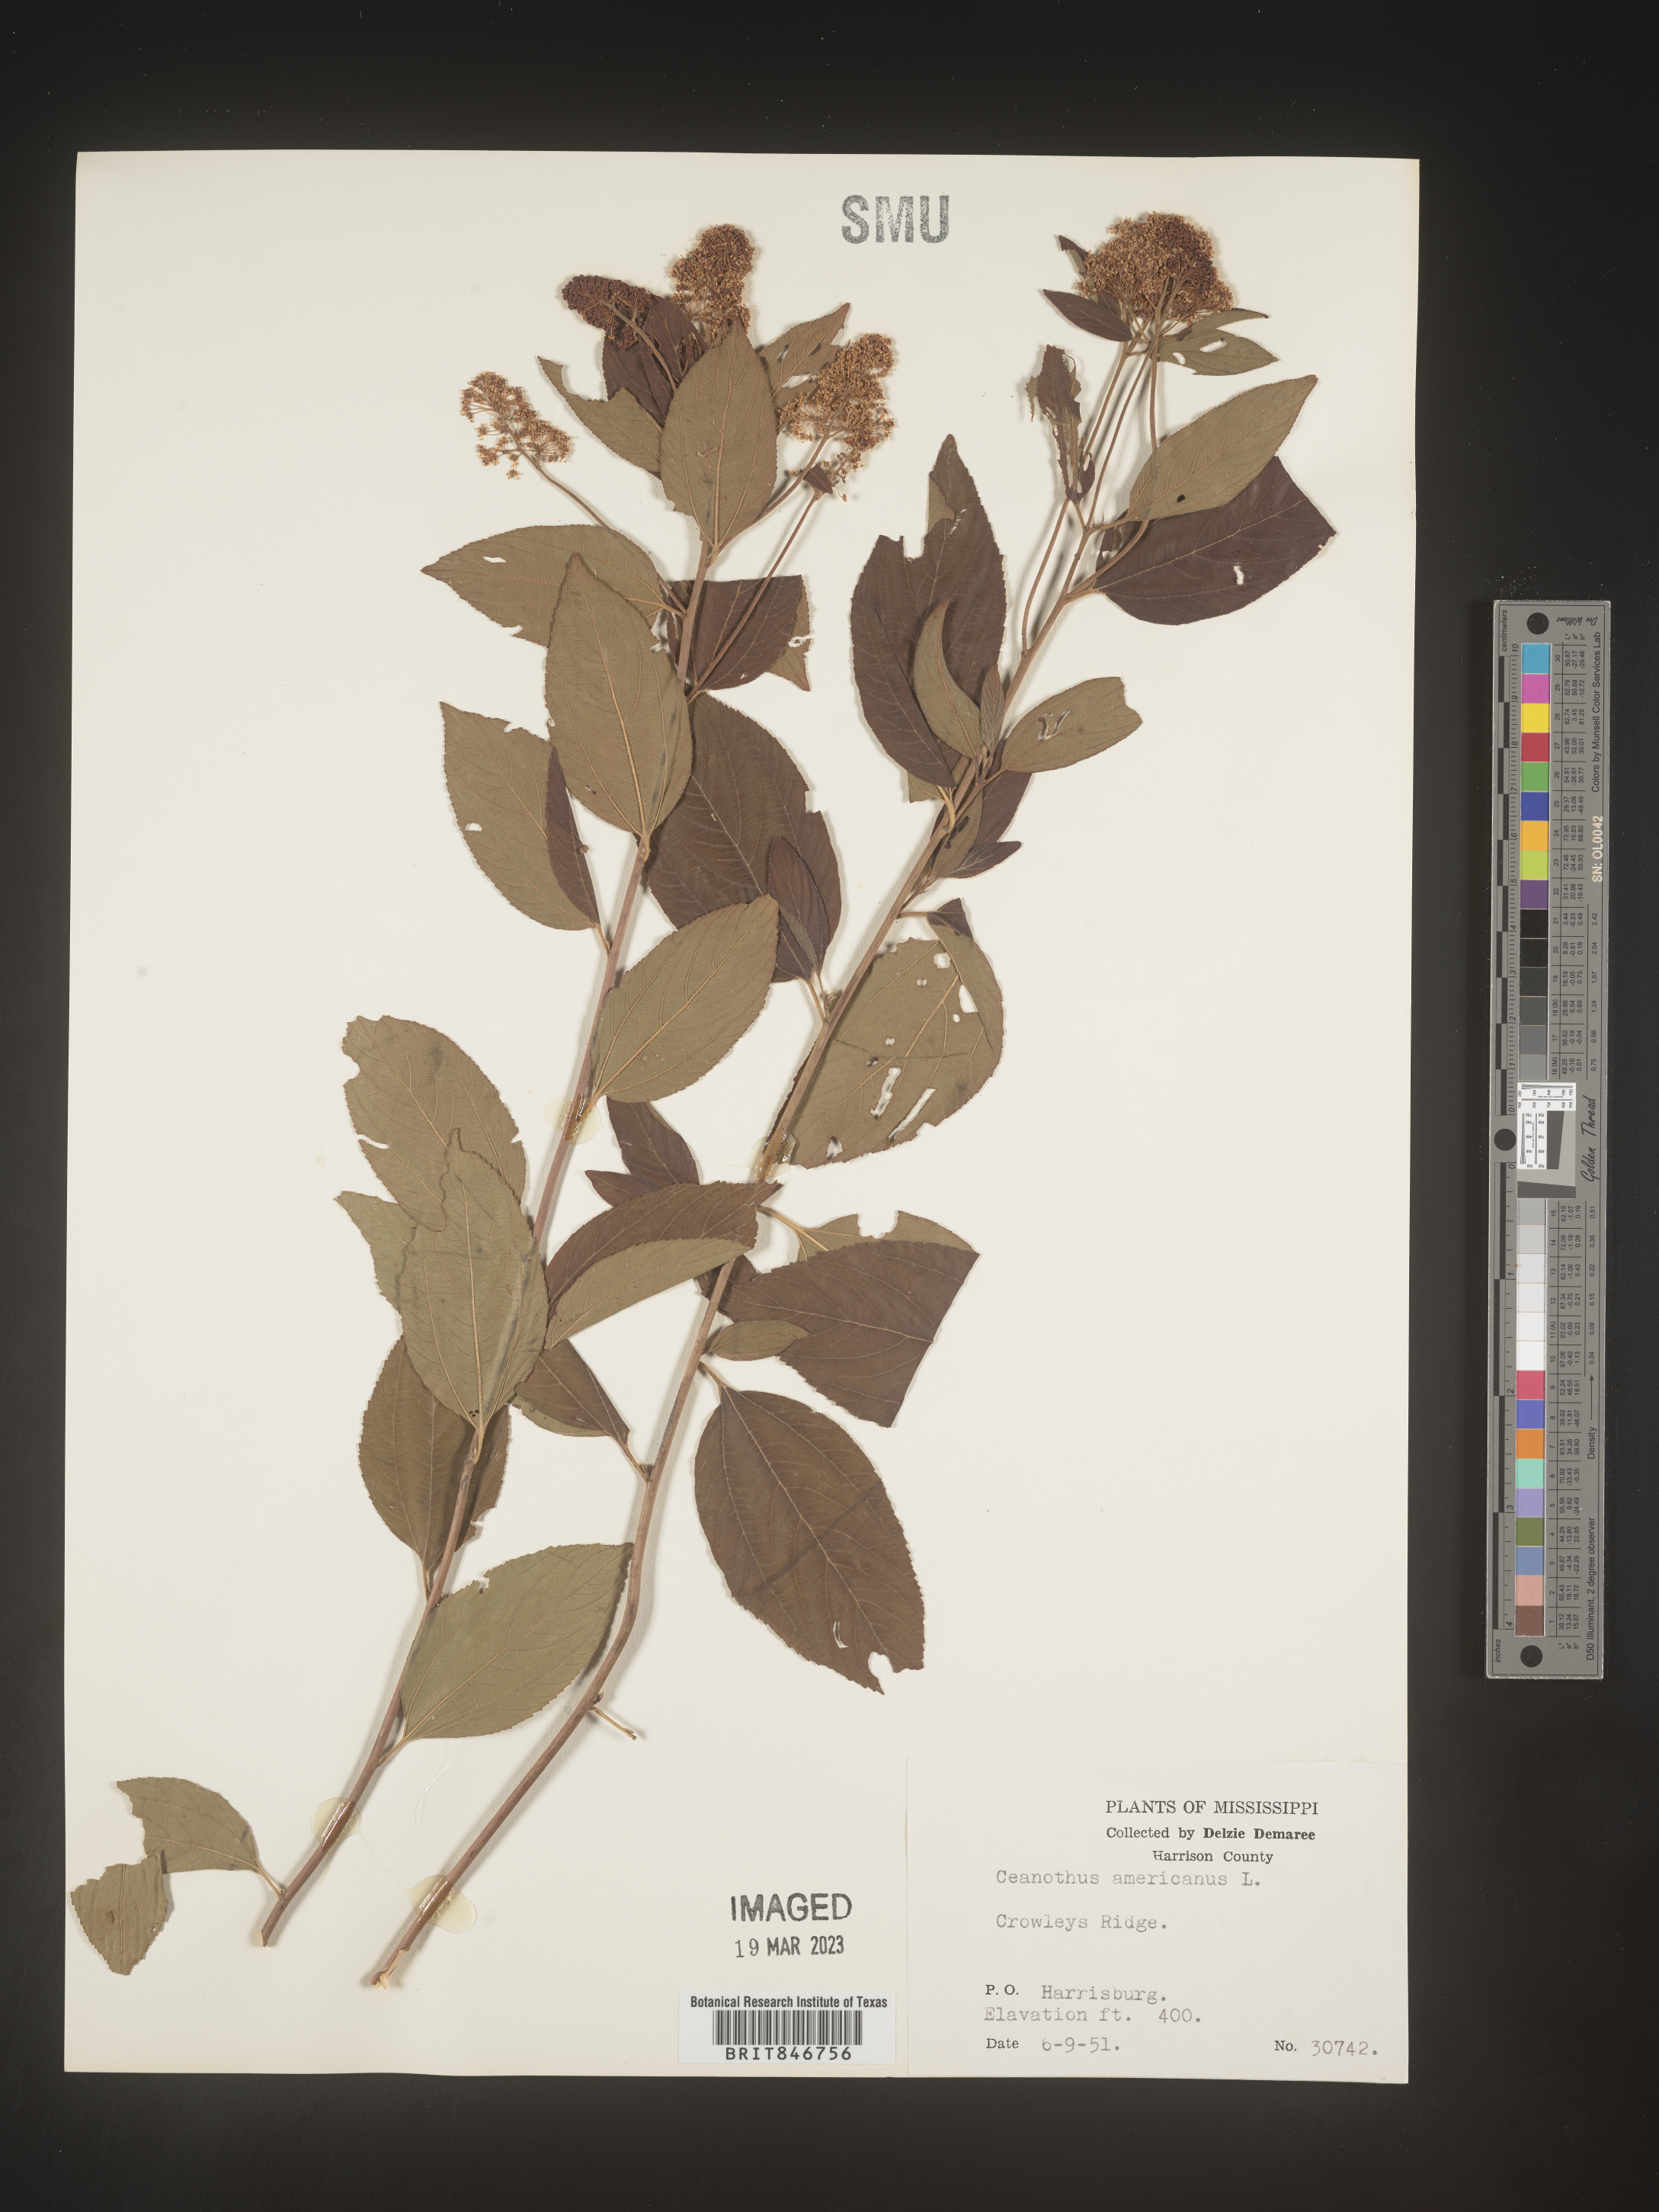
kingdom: Plantae
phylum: Tracheophyta
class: Magnoliopsida
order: Rosales
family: Rhamnaceae
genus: Ceanothus
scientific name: Ceanothus americanus
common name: Redroot
